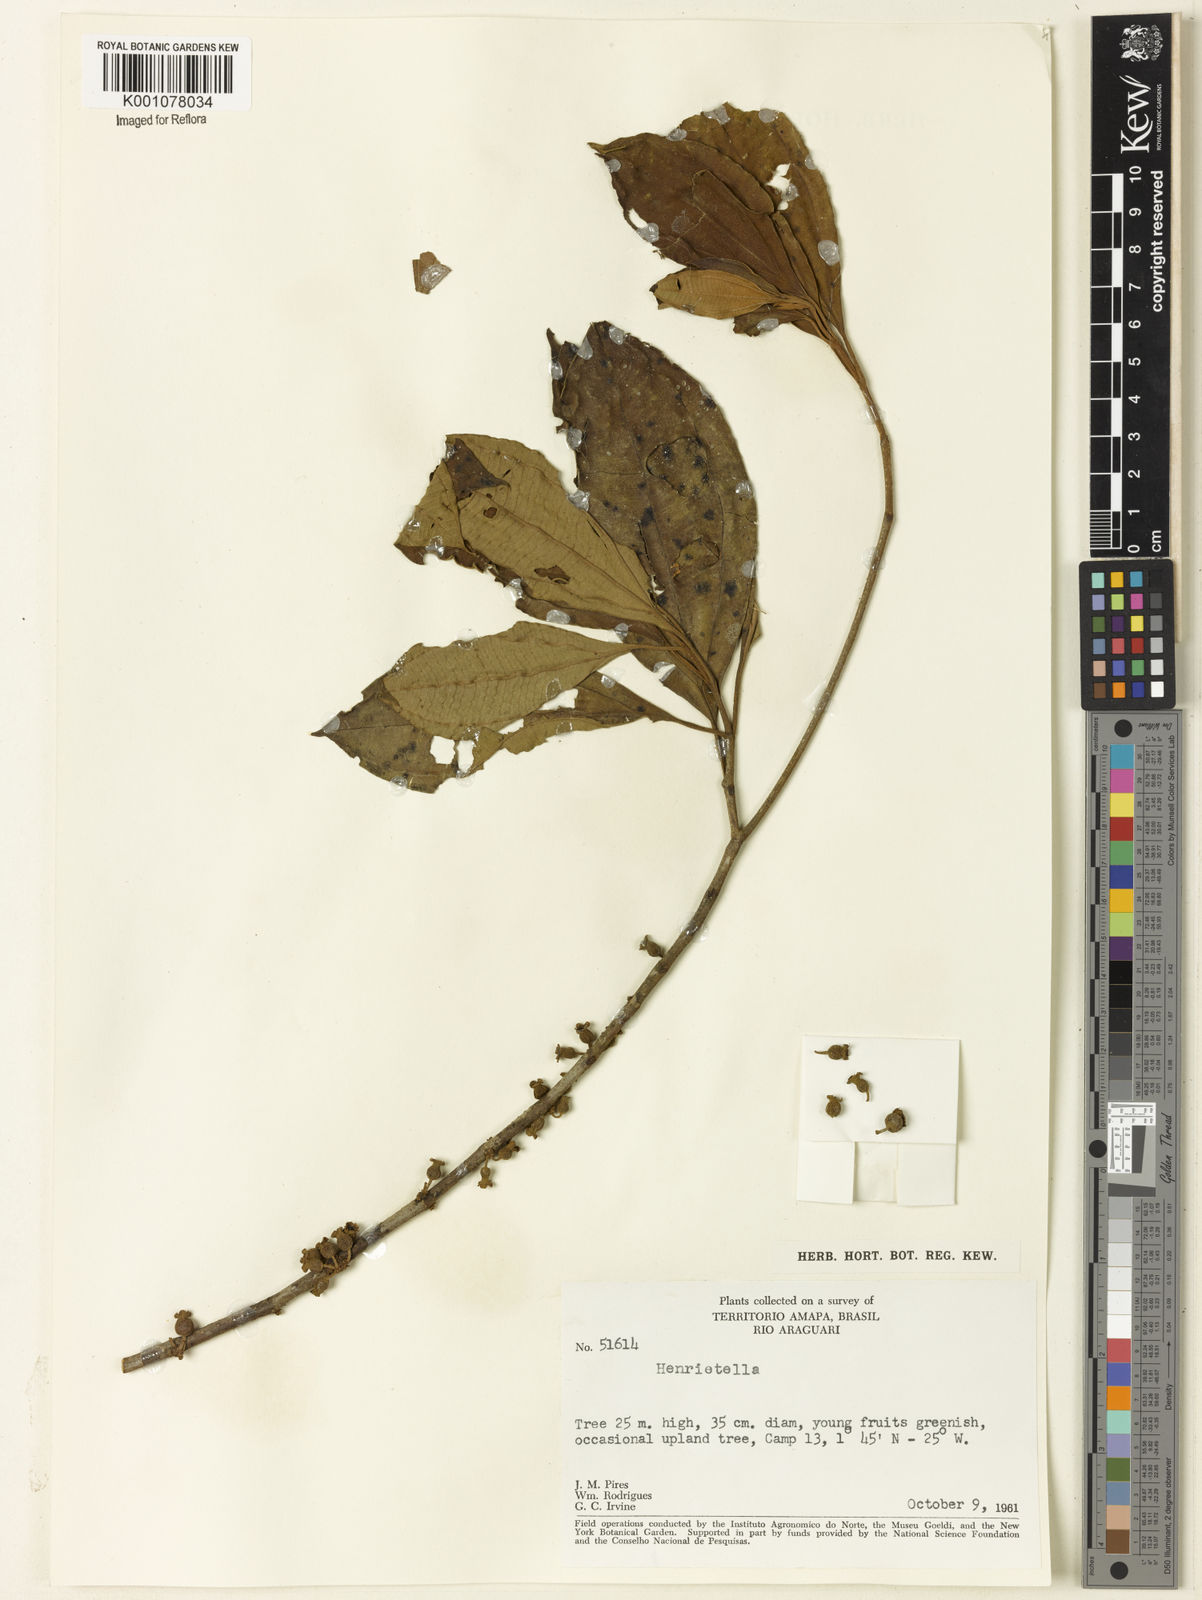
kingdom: Plantae
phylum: Tracheophyta
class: Magnoliopsida
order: Myrtales
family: Melastomataceae
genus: Henriettea
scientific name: Henriettea
